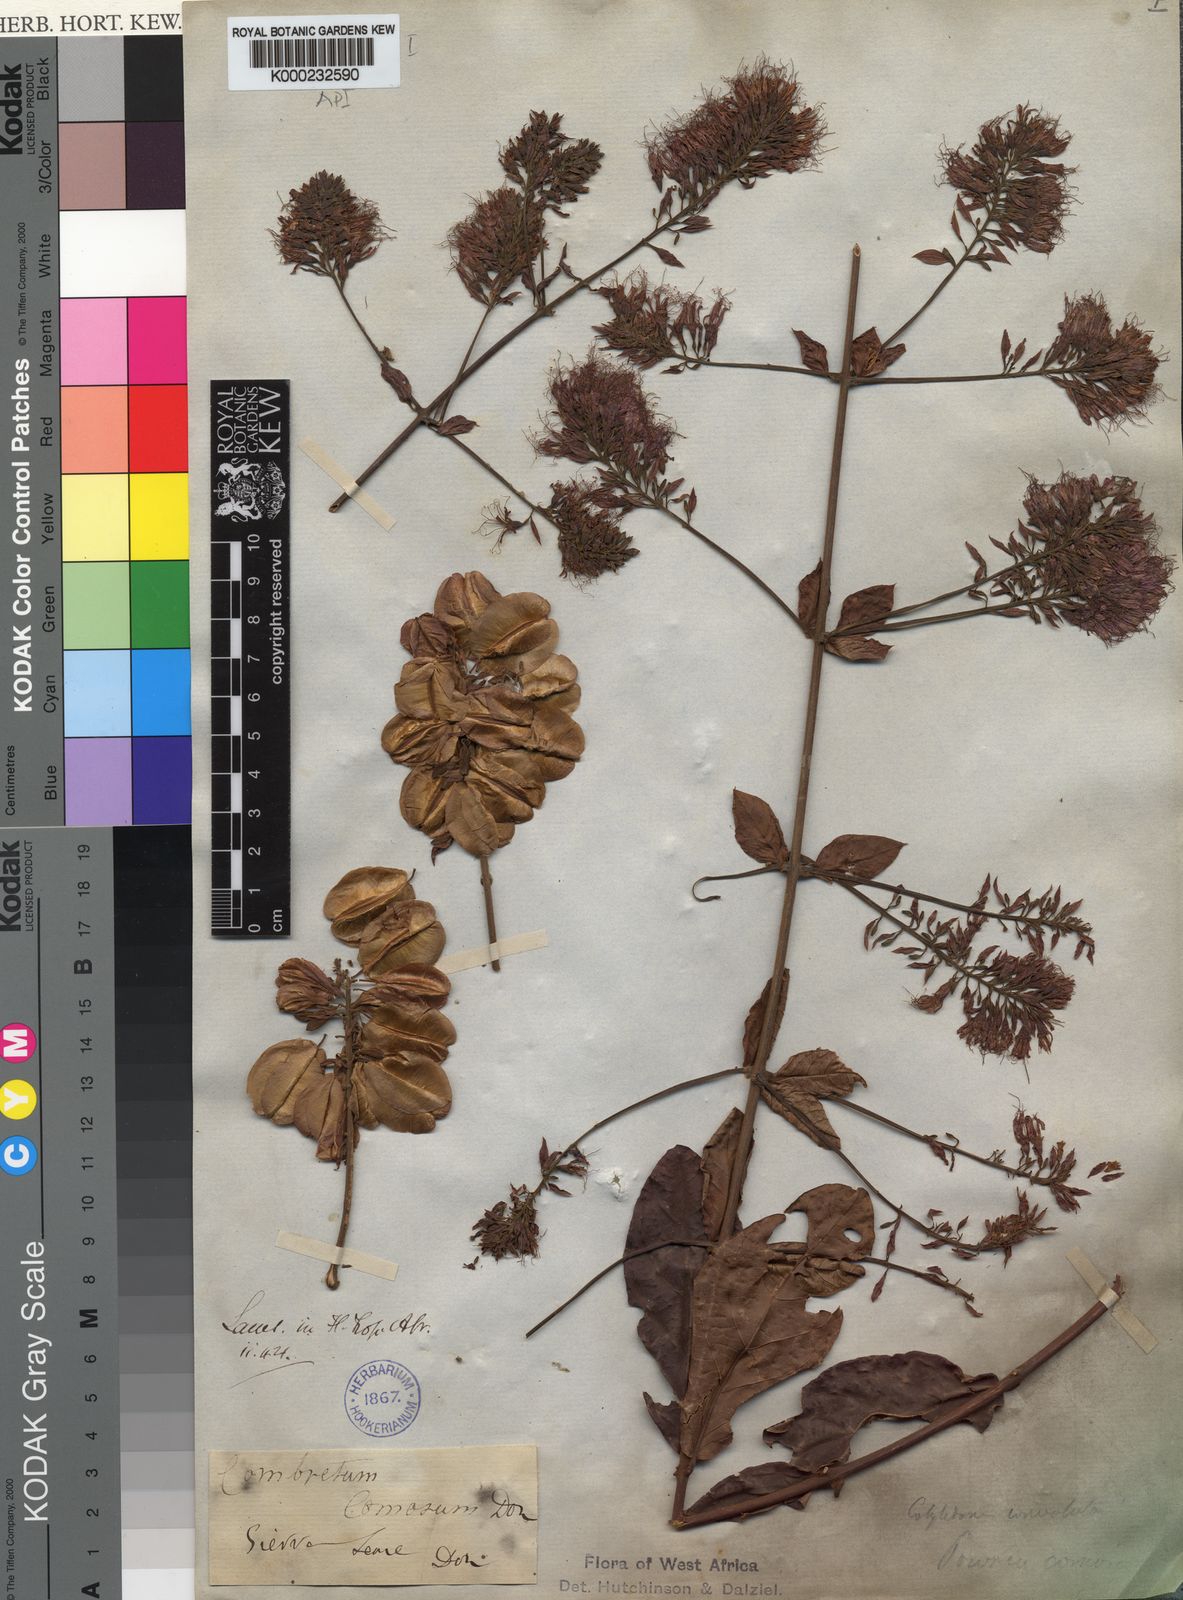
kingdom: Plantae
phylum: Tracheophyta
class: Magnoliopsida
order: Myrtales
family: Combretaceae
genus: Combretum
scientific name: Combretum comosum
